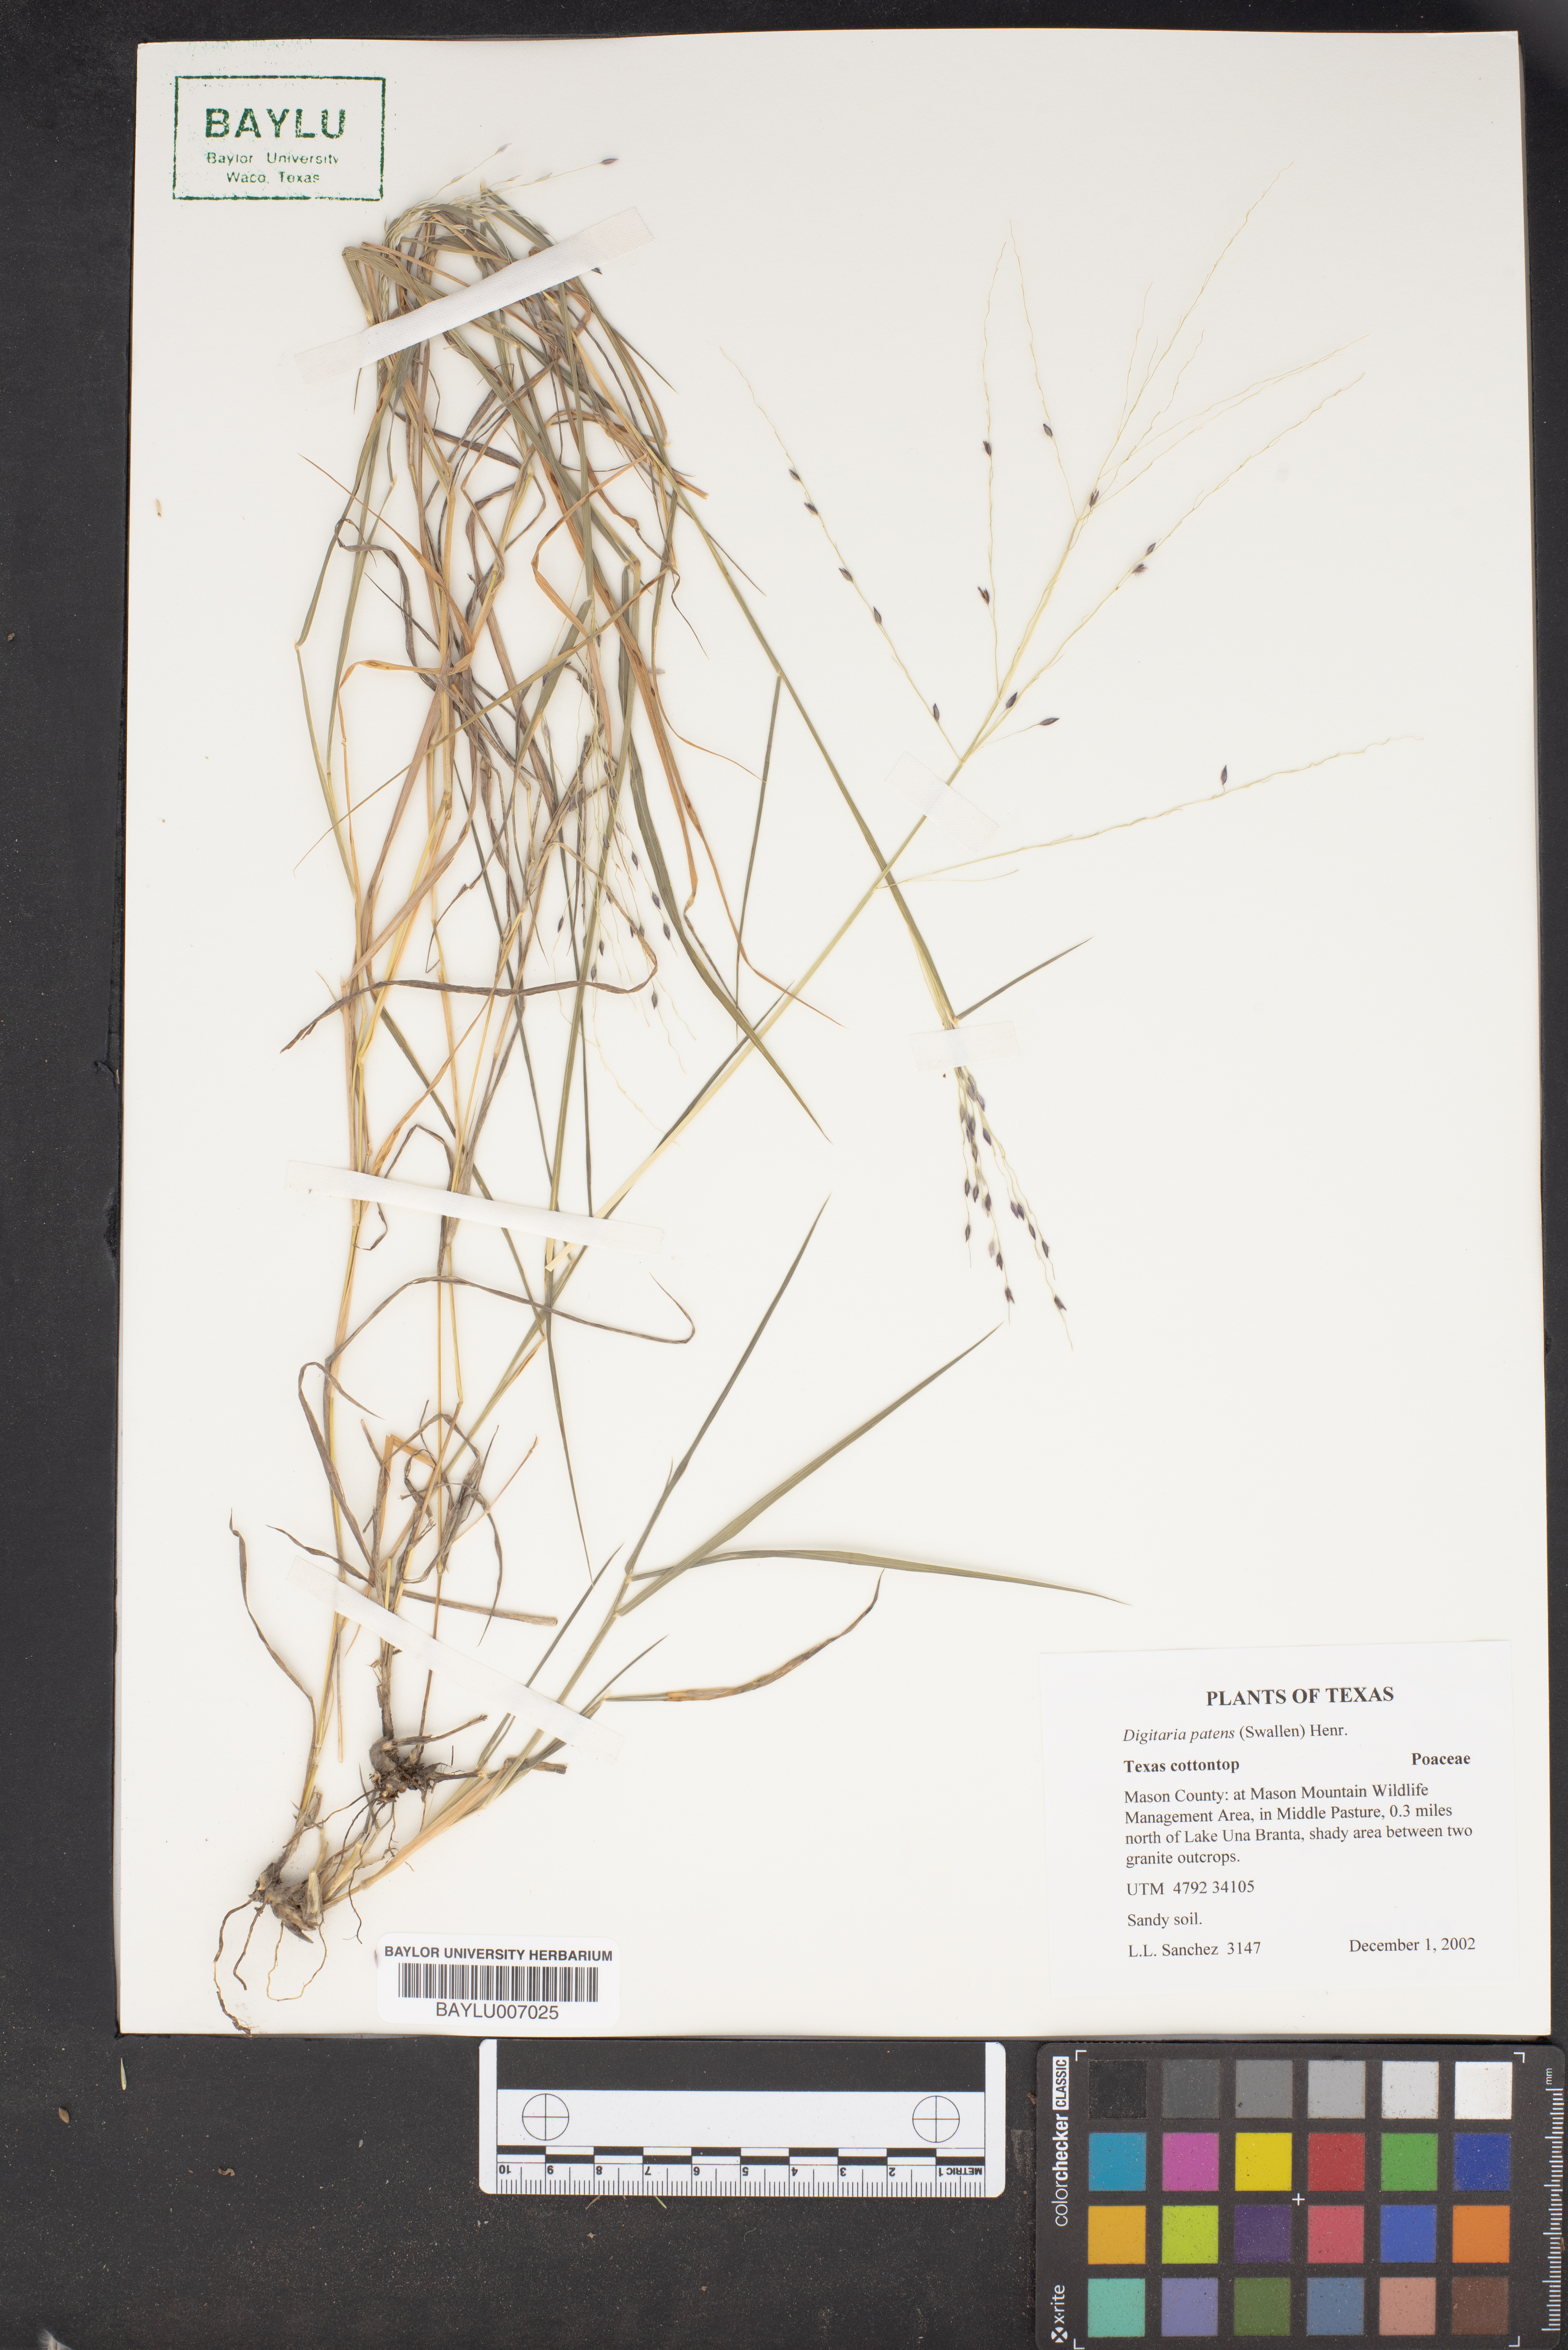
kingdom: Plantae
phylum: Tracheophyta
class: Liliopsida
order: Poales
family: Poaceae
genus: Digitaria
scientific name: Digitaria patens
